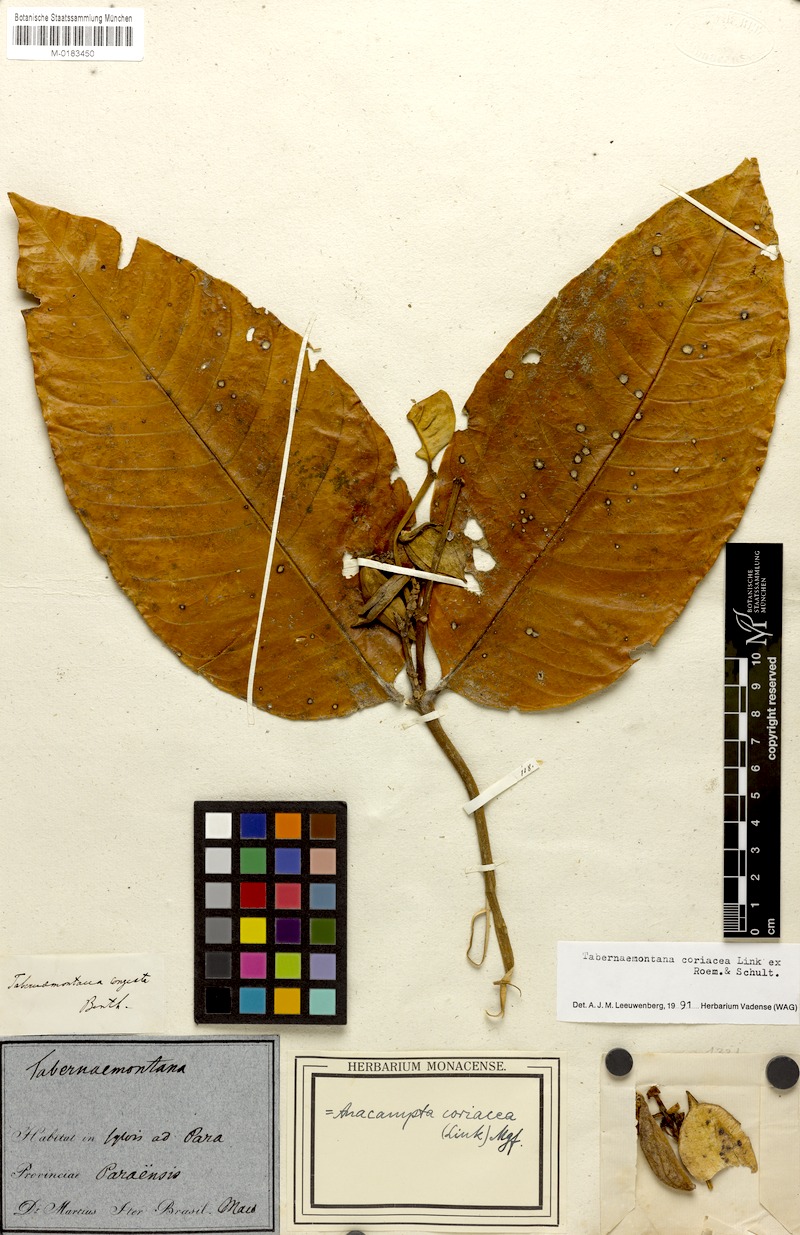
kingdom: Plantae
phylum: Tracheophyta
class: Magnoliopsida
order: Gentianales
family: Apocynaceae
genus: Tabernaemontana
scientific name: Tabernaemontana coriacea
